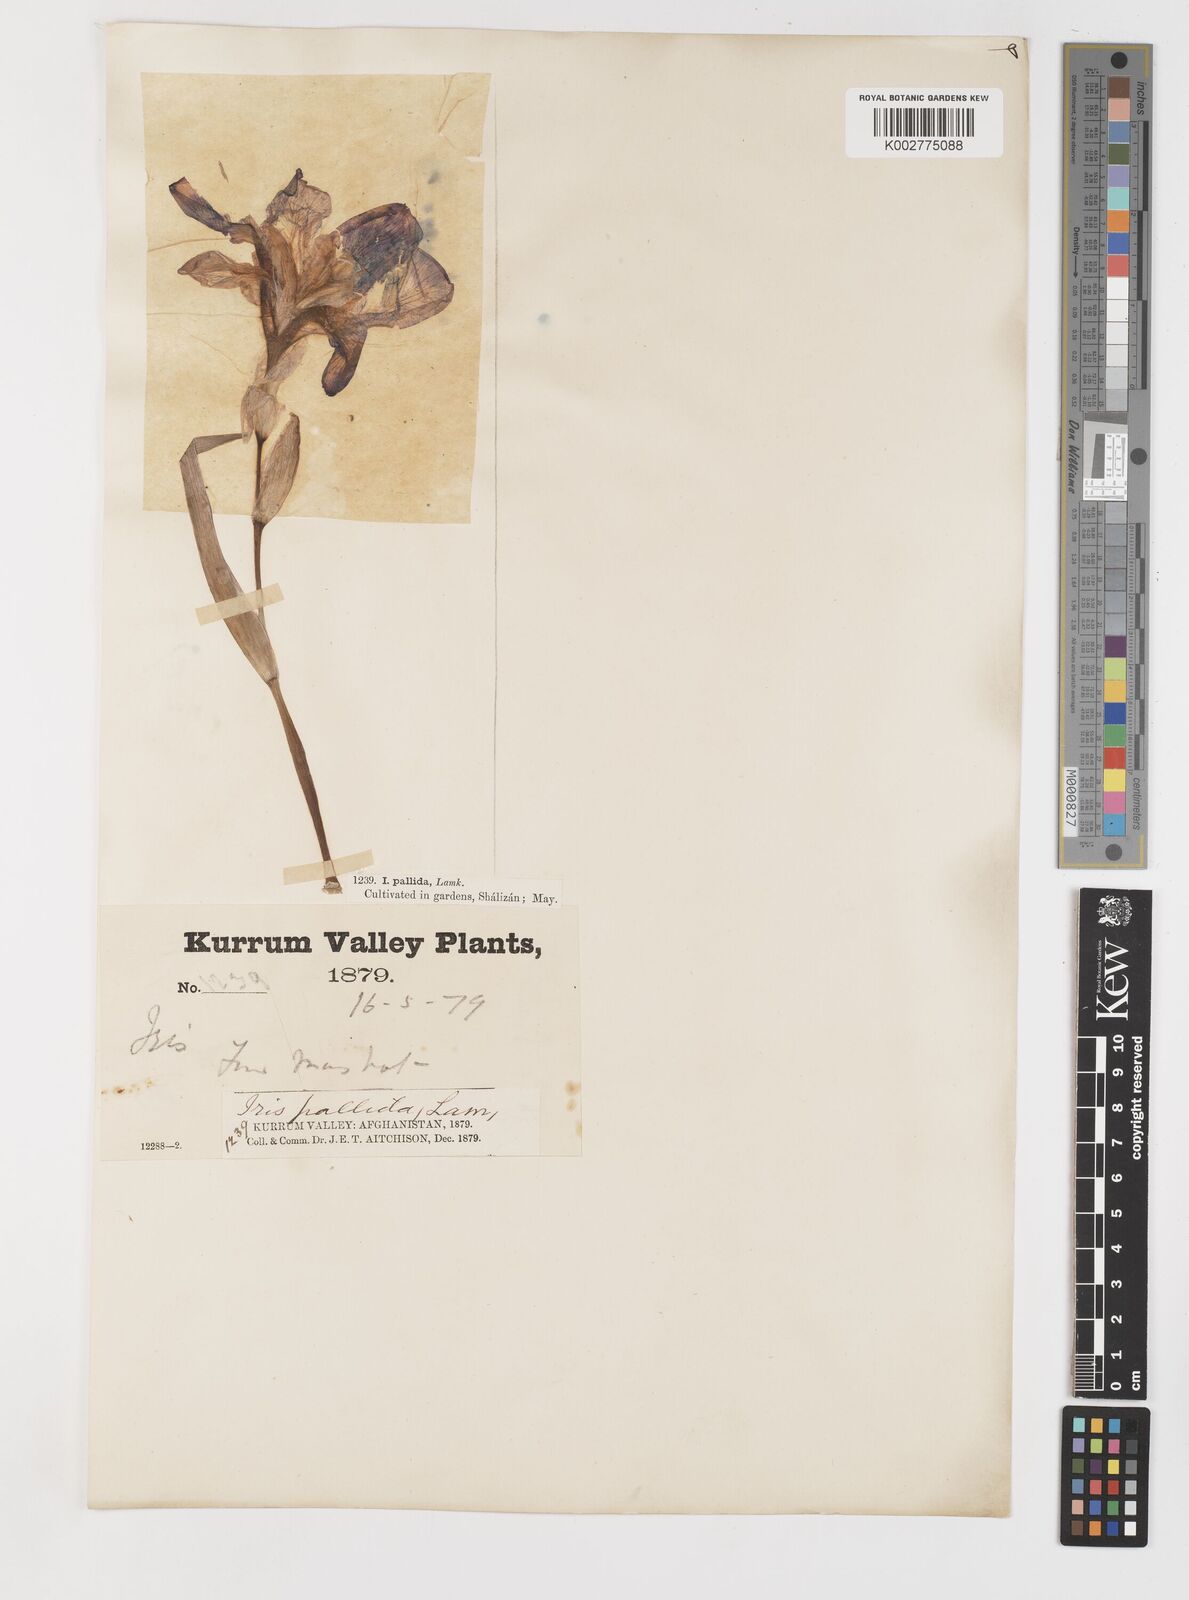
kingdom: Plantae
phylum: Tracheophyta
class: Liliopsida
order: Asparagales
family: Iridaceae
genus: Iris
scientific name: Iris germanica
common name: German iris
